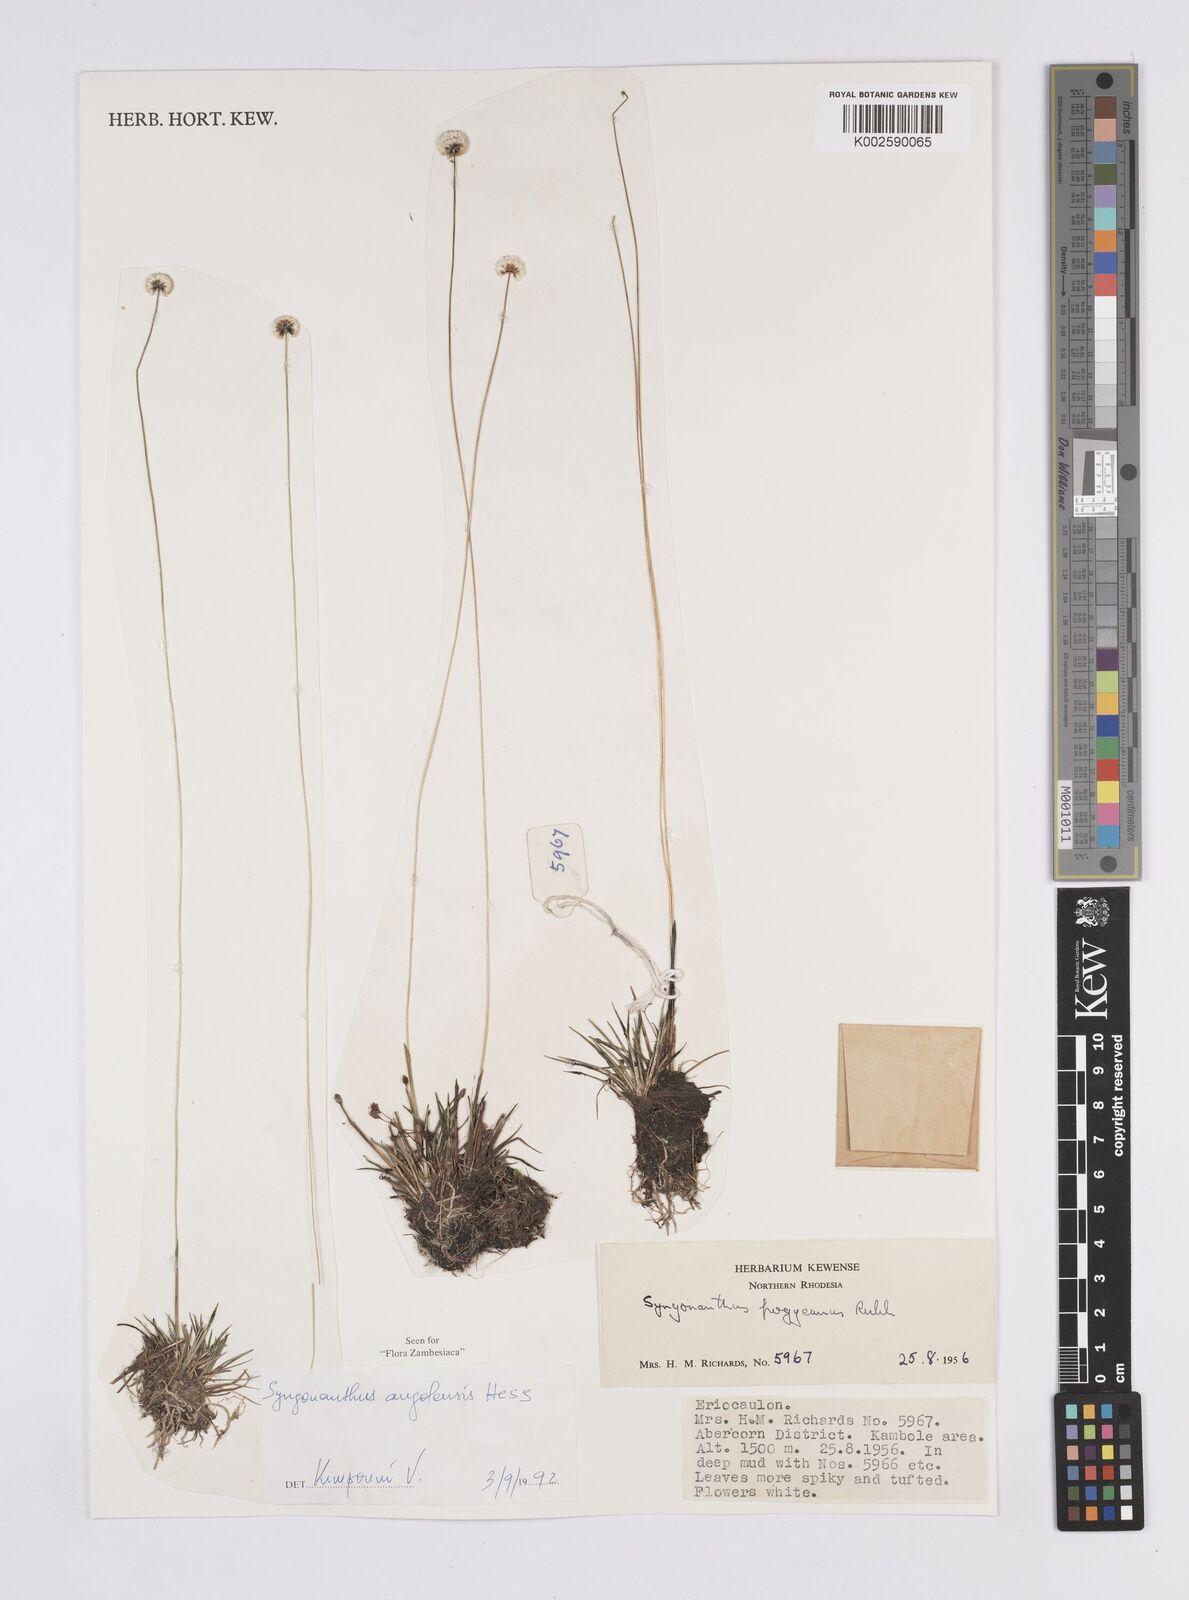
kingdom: Plantae
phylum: Tracheophyta
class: Liliopsida
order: Poales
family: Eriocaulaceae
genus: Syngonanthus
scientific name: Syngonanthus angolensis
